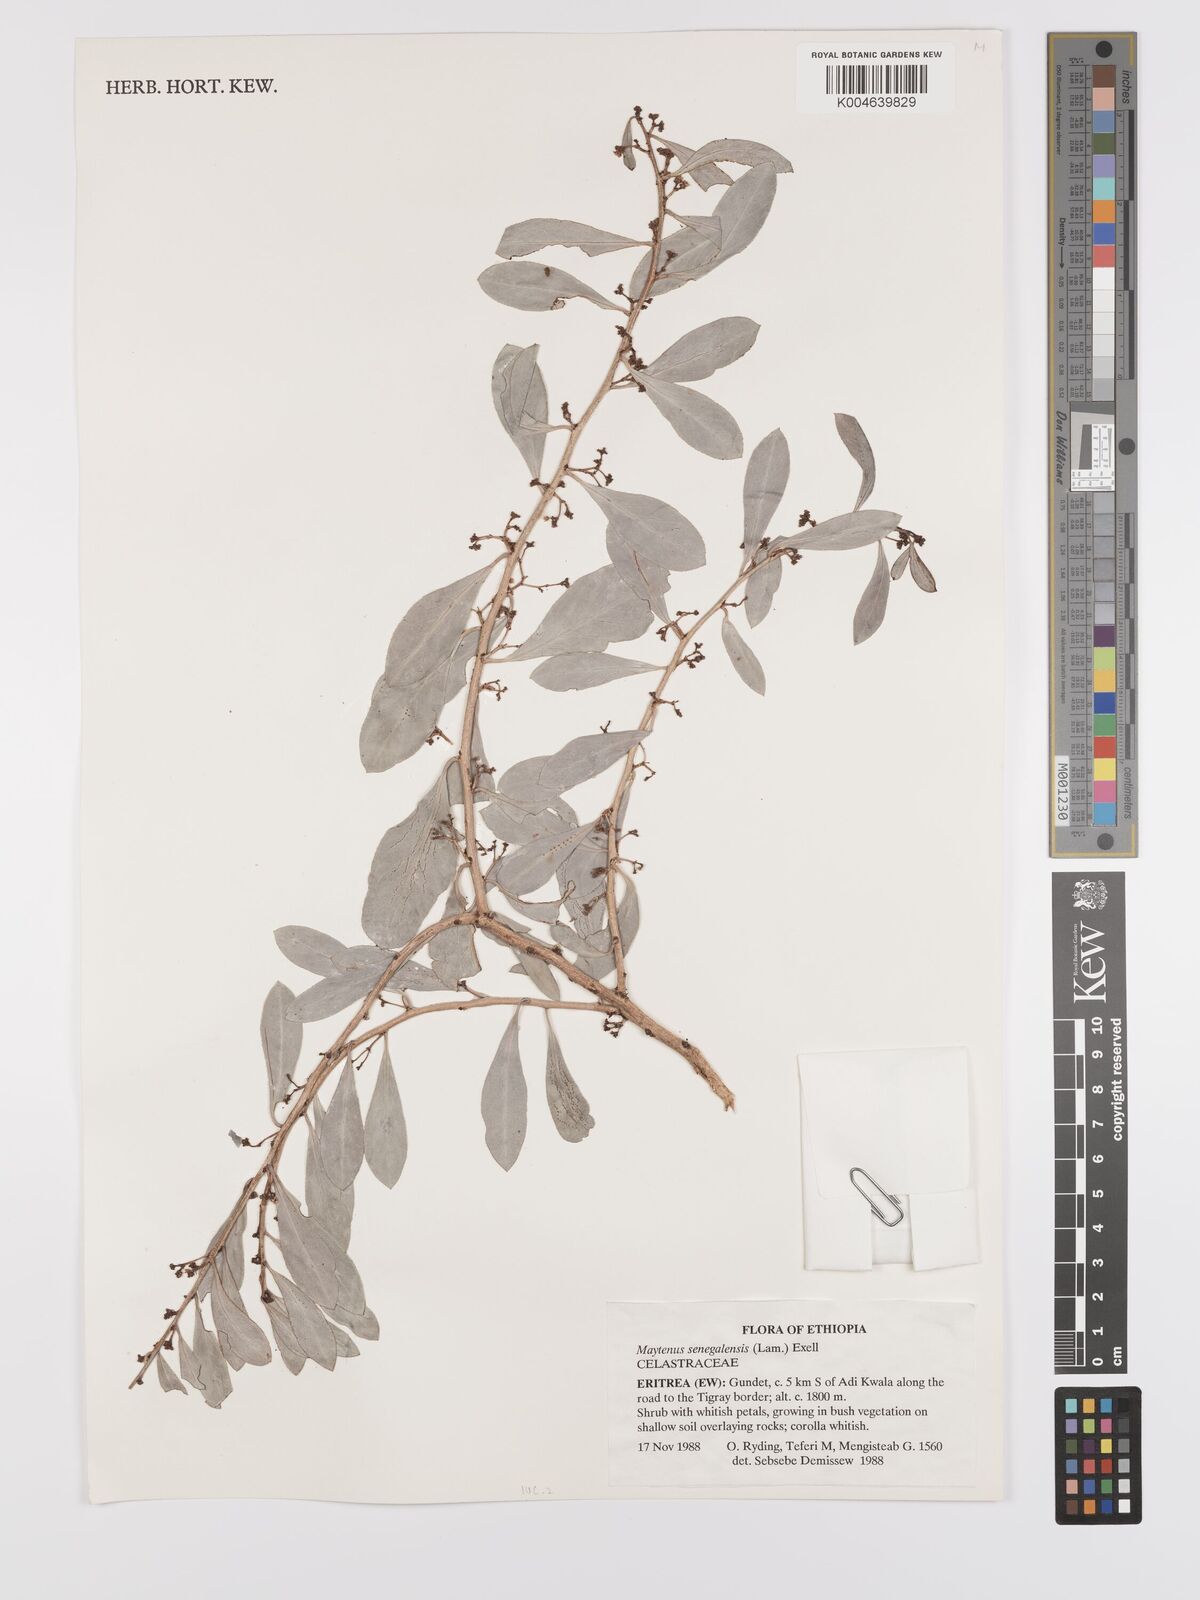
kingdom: Plantae
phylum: Tracheophyta
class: Magnoliopsida
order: Celastrales
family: Celastraceae
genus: Gymnosporia
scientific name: Gymnosporia senegalensis
